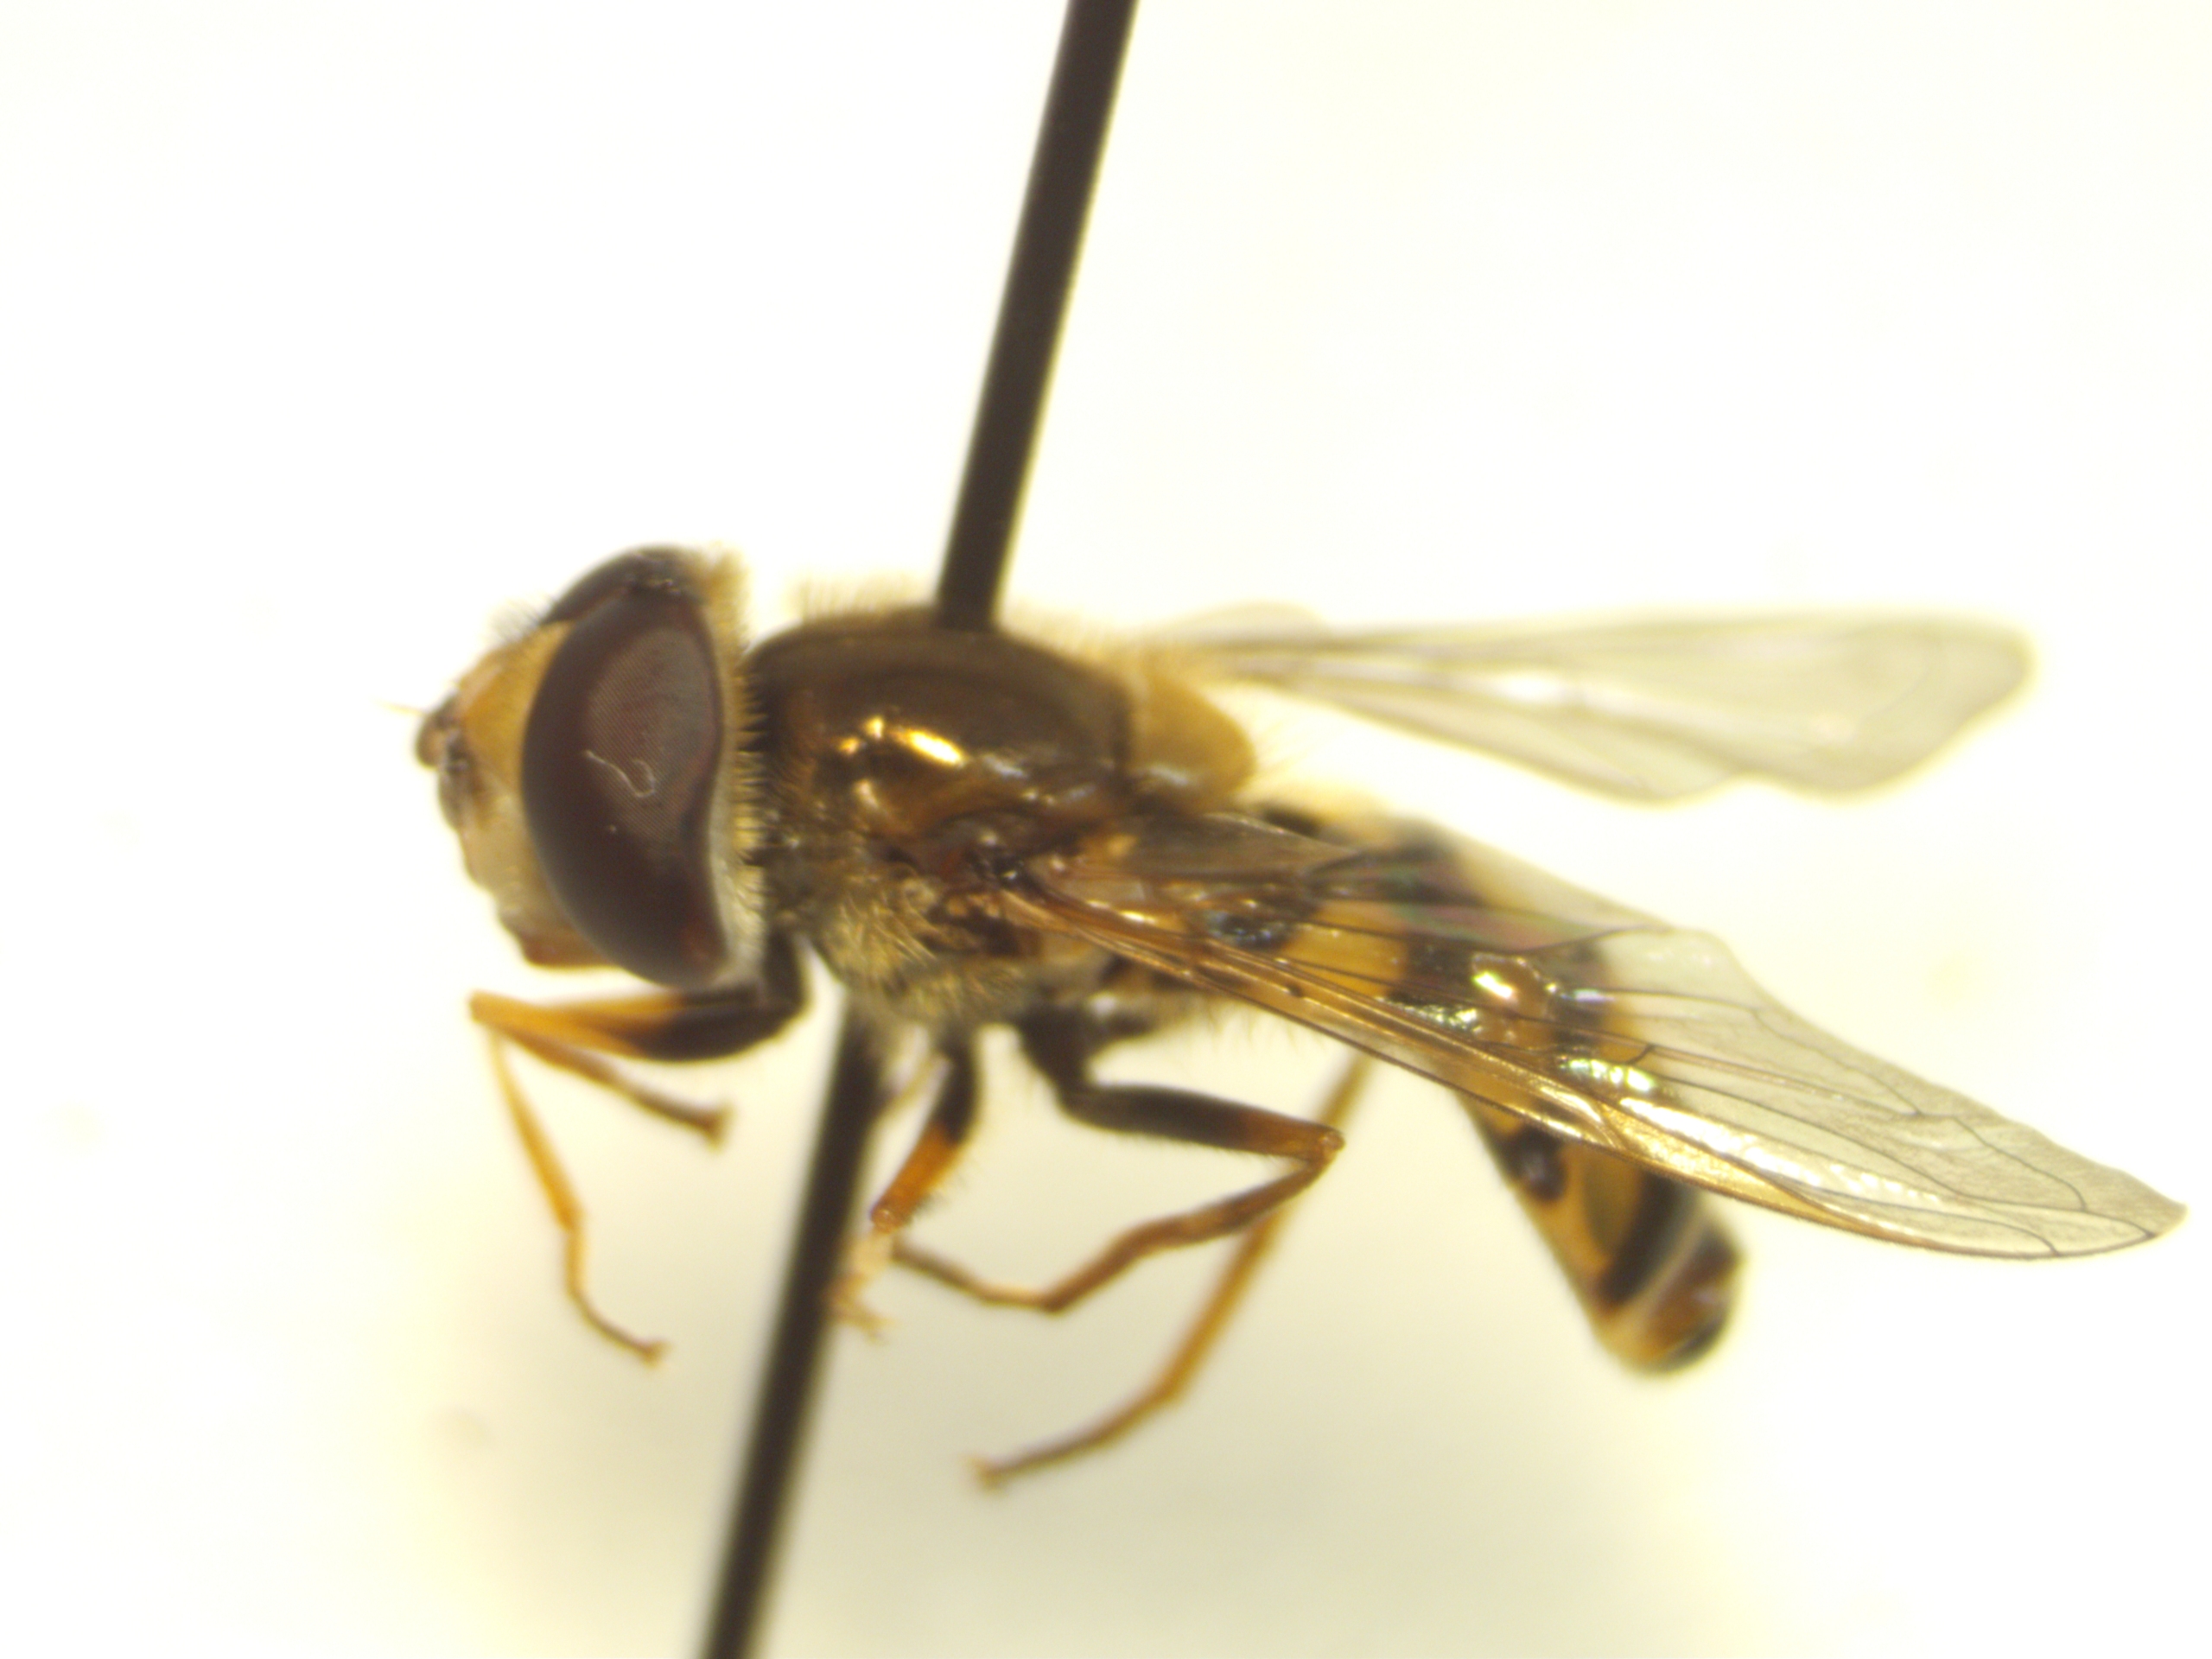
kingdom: Animalia
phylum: Arthropoda
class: Insecta
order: Diptera
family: Syrphidae
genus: Eupeodes
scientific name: Eupeodes corollae
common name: Almindelig marksvirreflue
